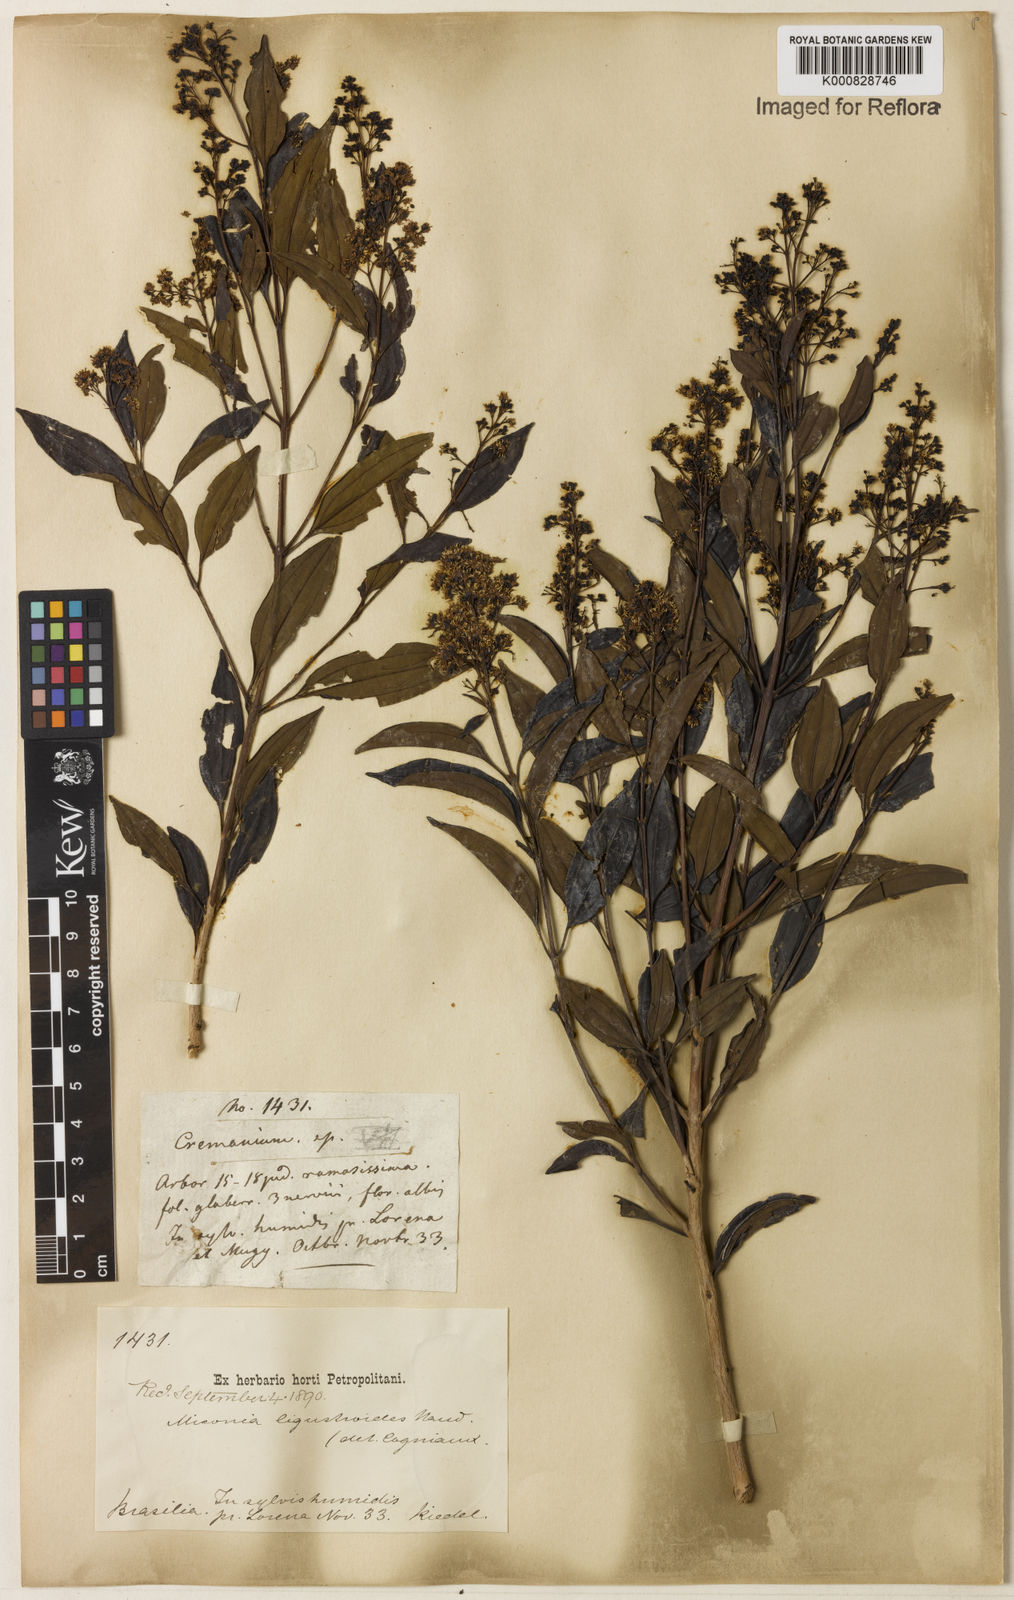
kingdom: Plantae
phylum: Tracheophyta
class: Magnoliopsida
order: Myrtales
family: Melastomataceae
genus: Miconia
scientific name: Miconia ligustroides
